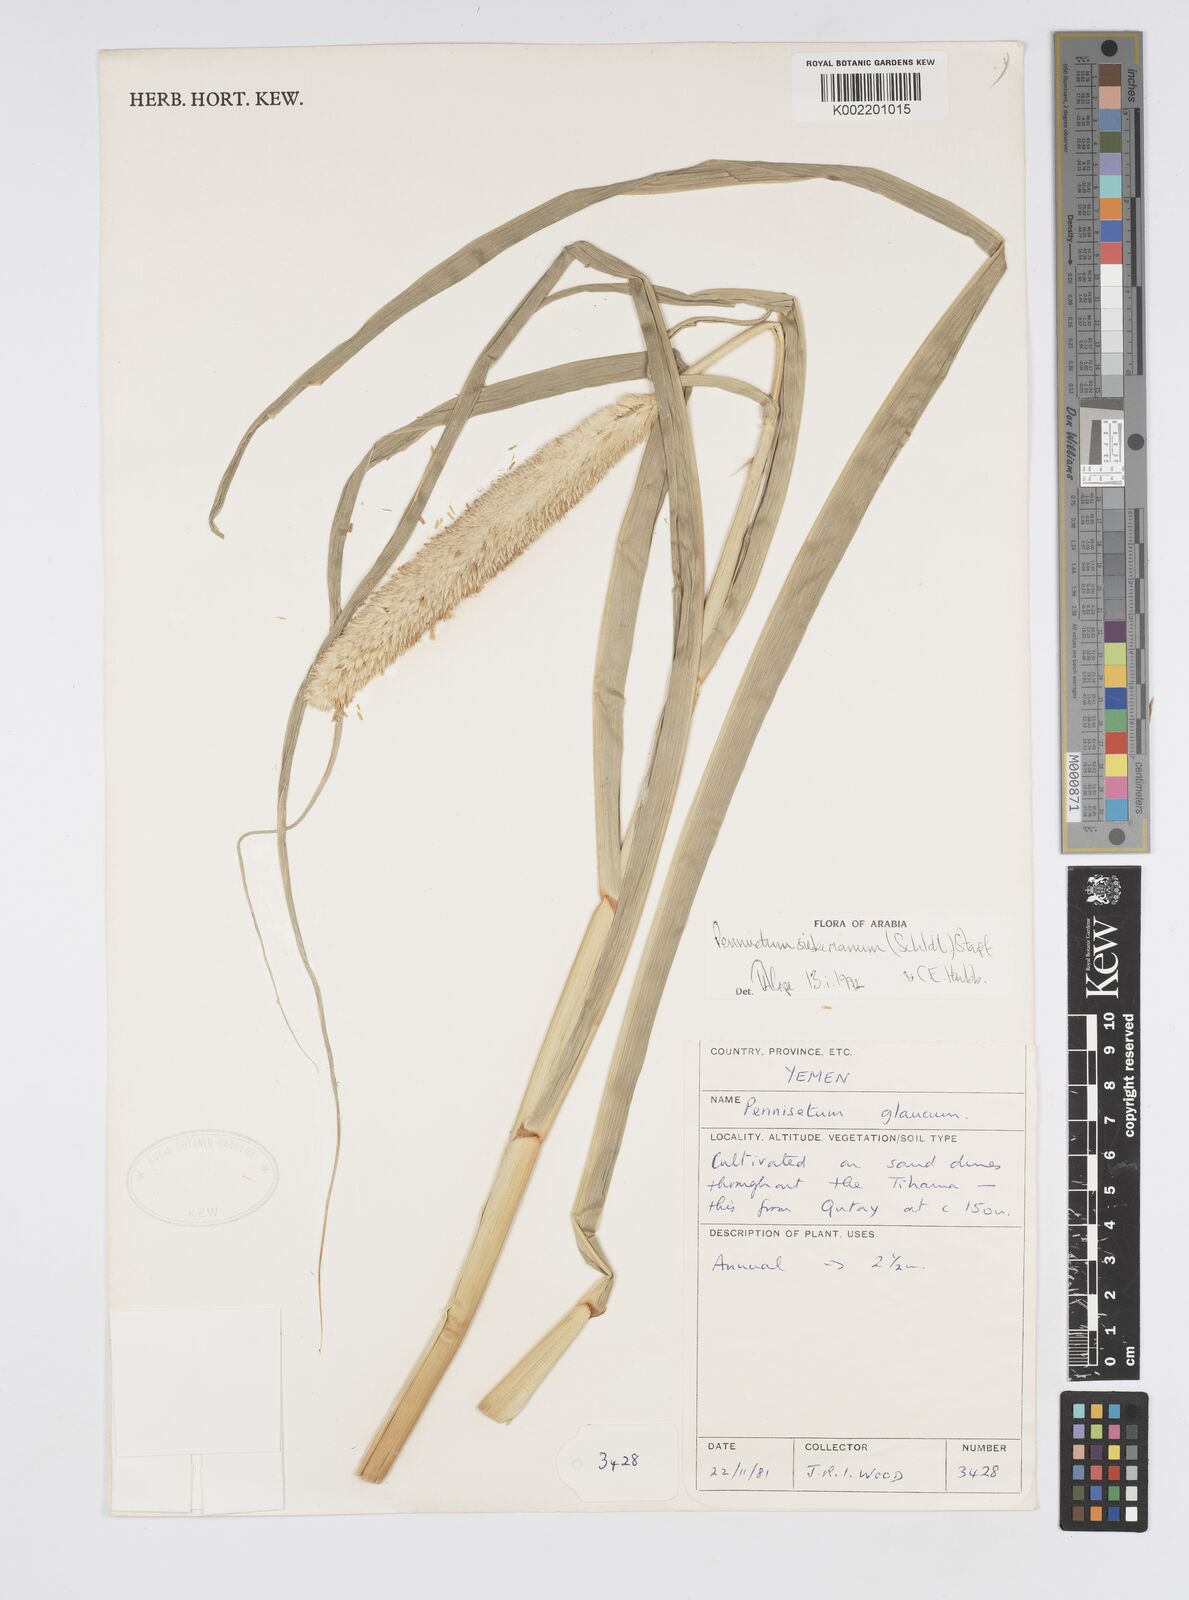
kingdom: Plantae
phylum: Tracheophyta
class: Liliopsida
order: Poales
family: Poaceae
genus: Cenchrus
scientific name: Cenchrus sieberianus
